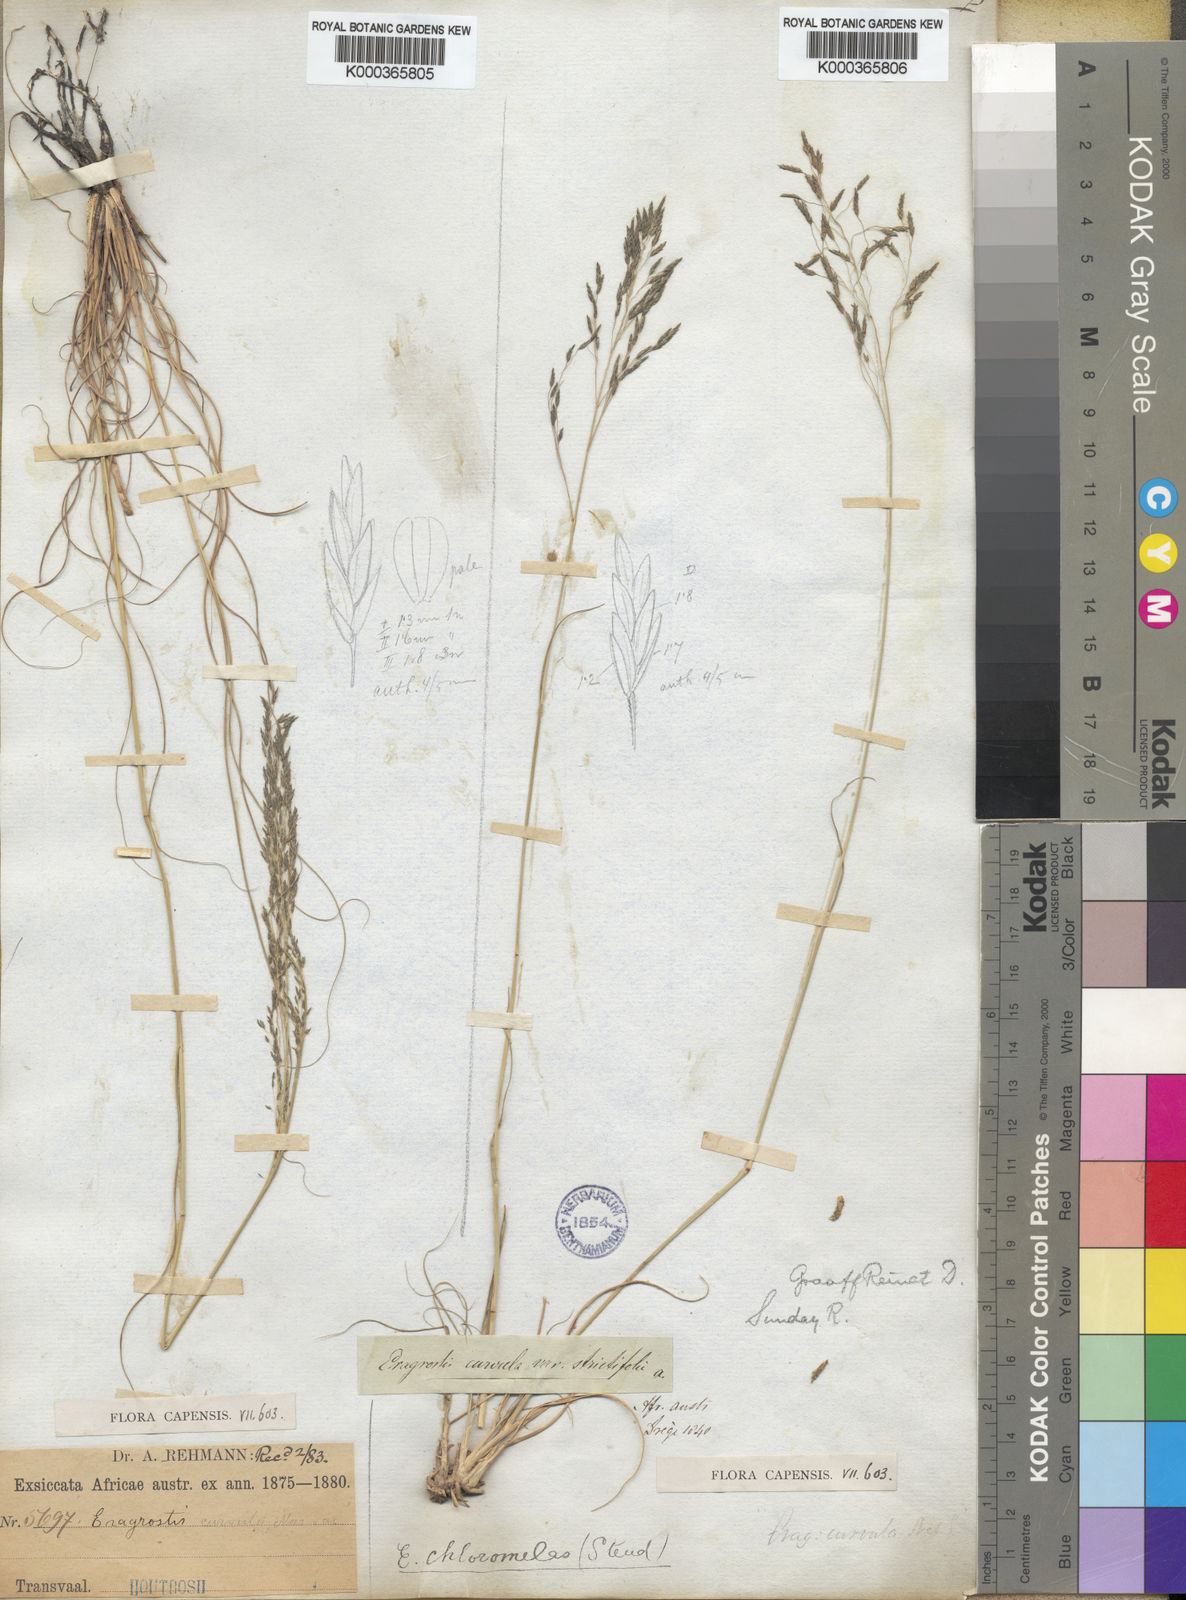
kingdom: Plantae
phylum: Tracheophyta
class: Liliopsida
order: Poales
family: Poaceae
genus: Eragrostis
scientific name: Eragrostis curvula
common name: African love-grass
